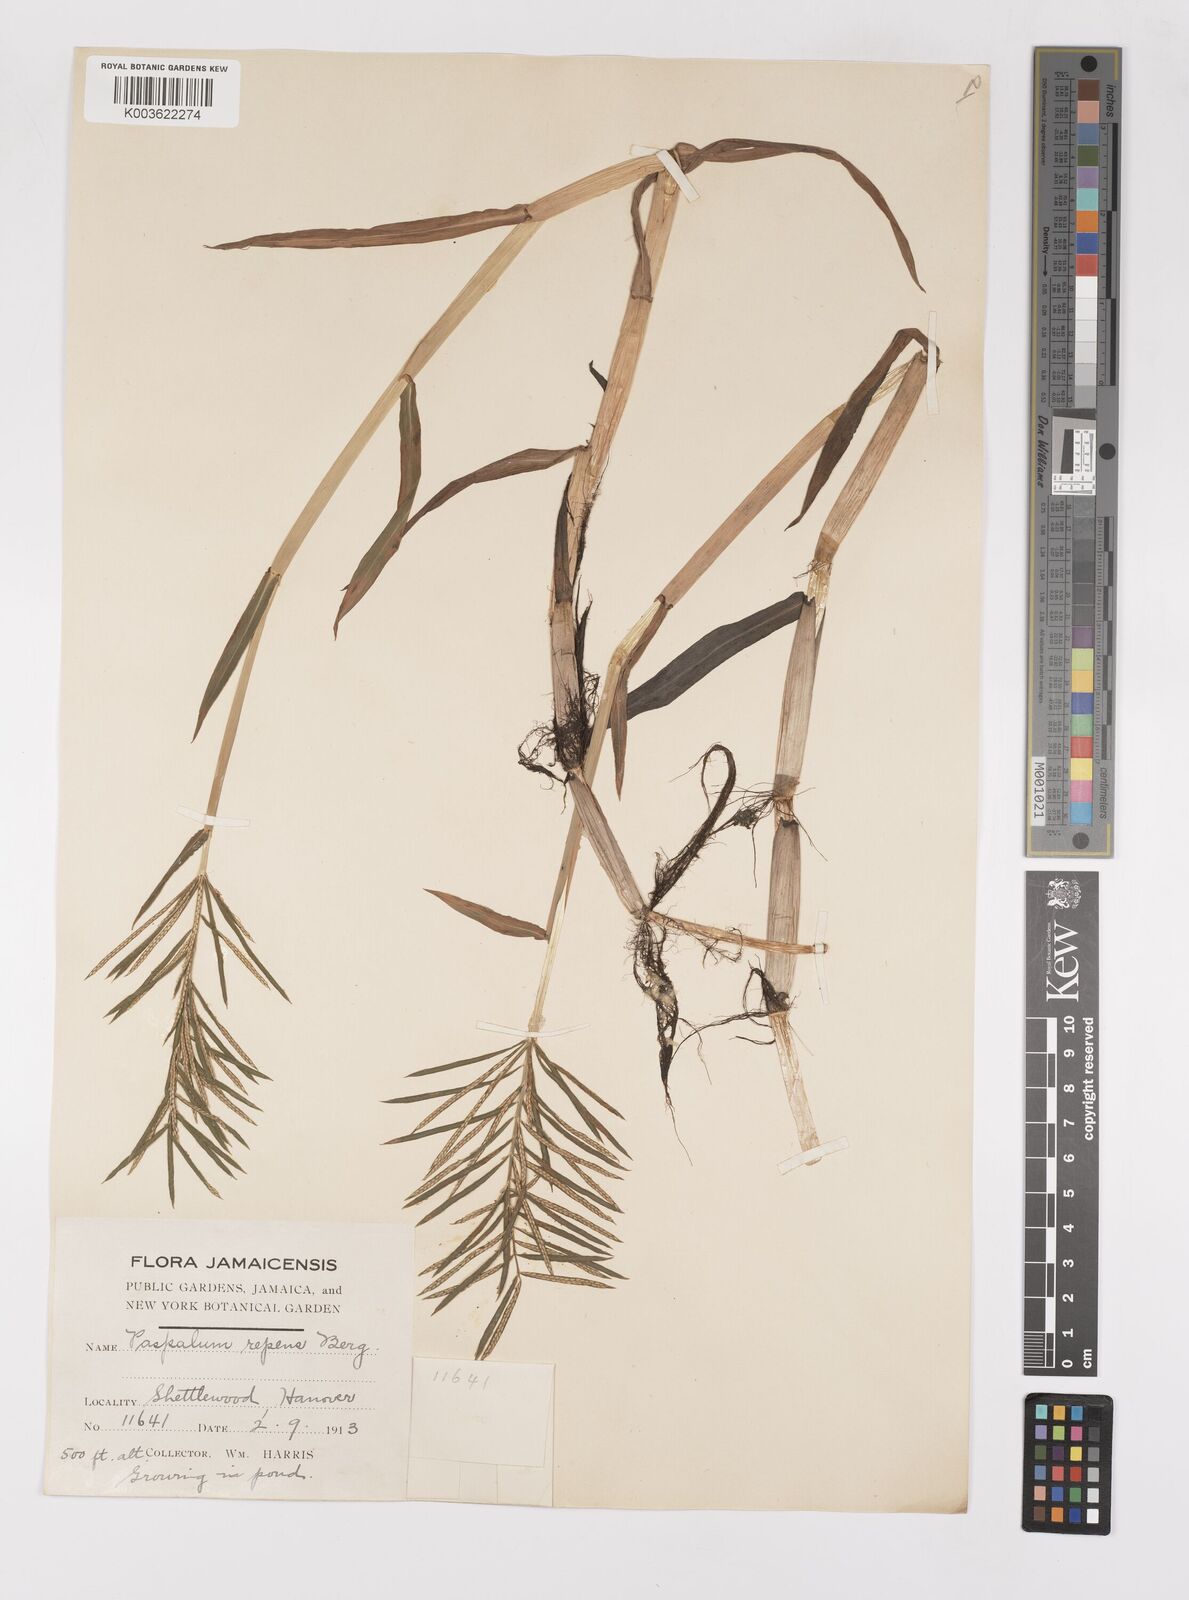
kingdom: Plantae
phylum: Tracheophyta
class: Liliopsida
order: Poales
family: Poaceae
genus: Paspalum
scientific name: Paspalum repens
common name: Water paspalum
